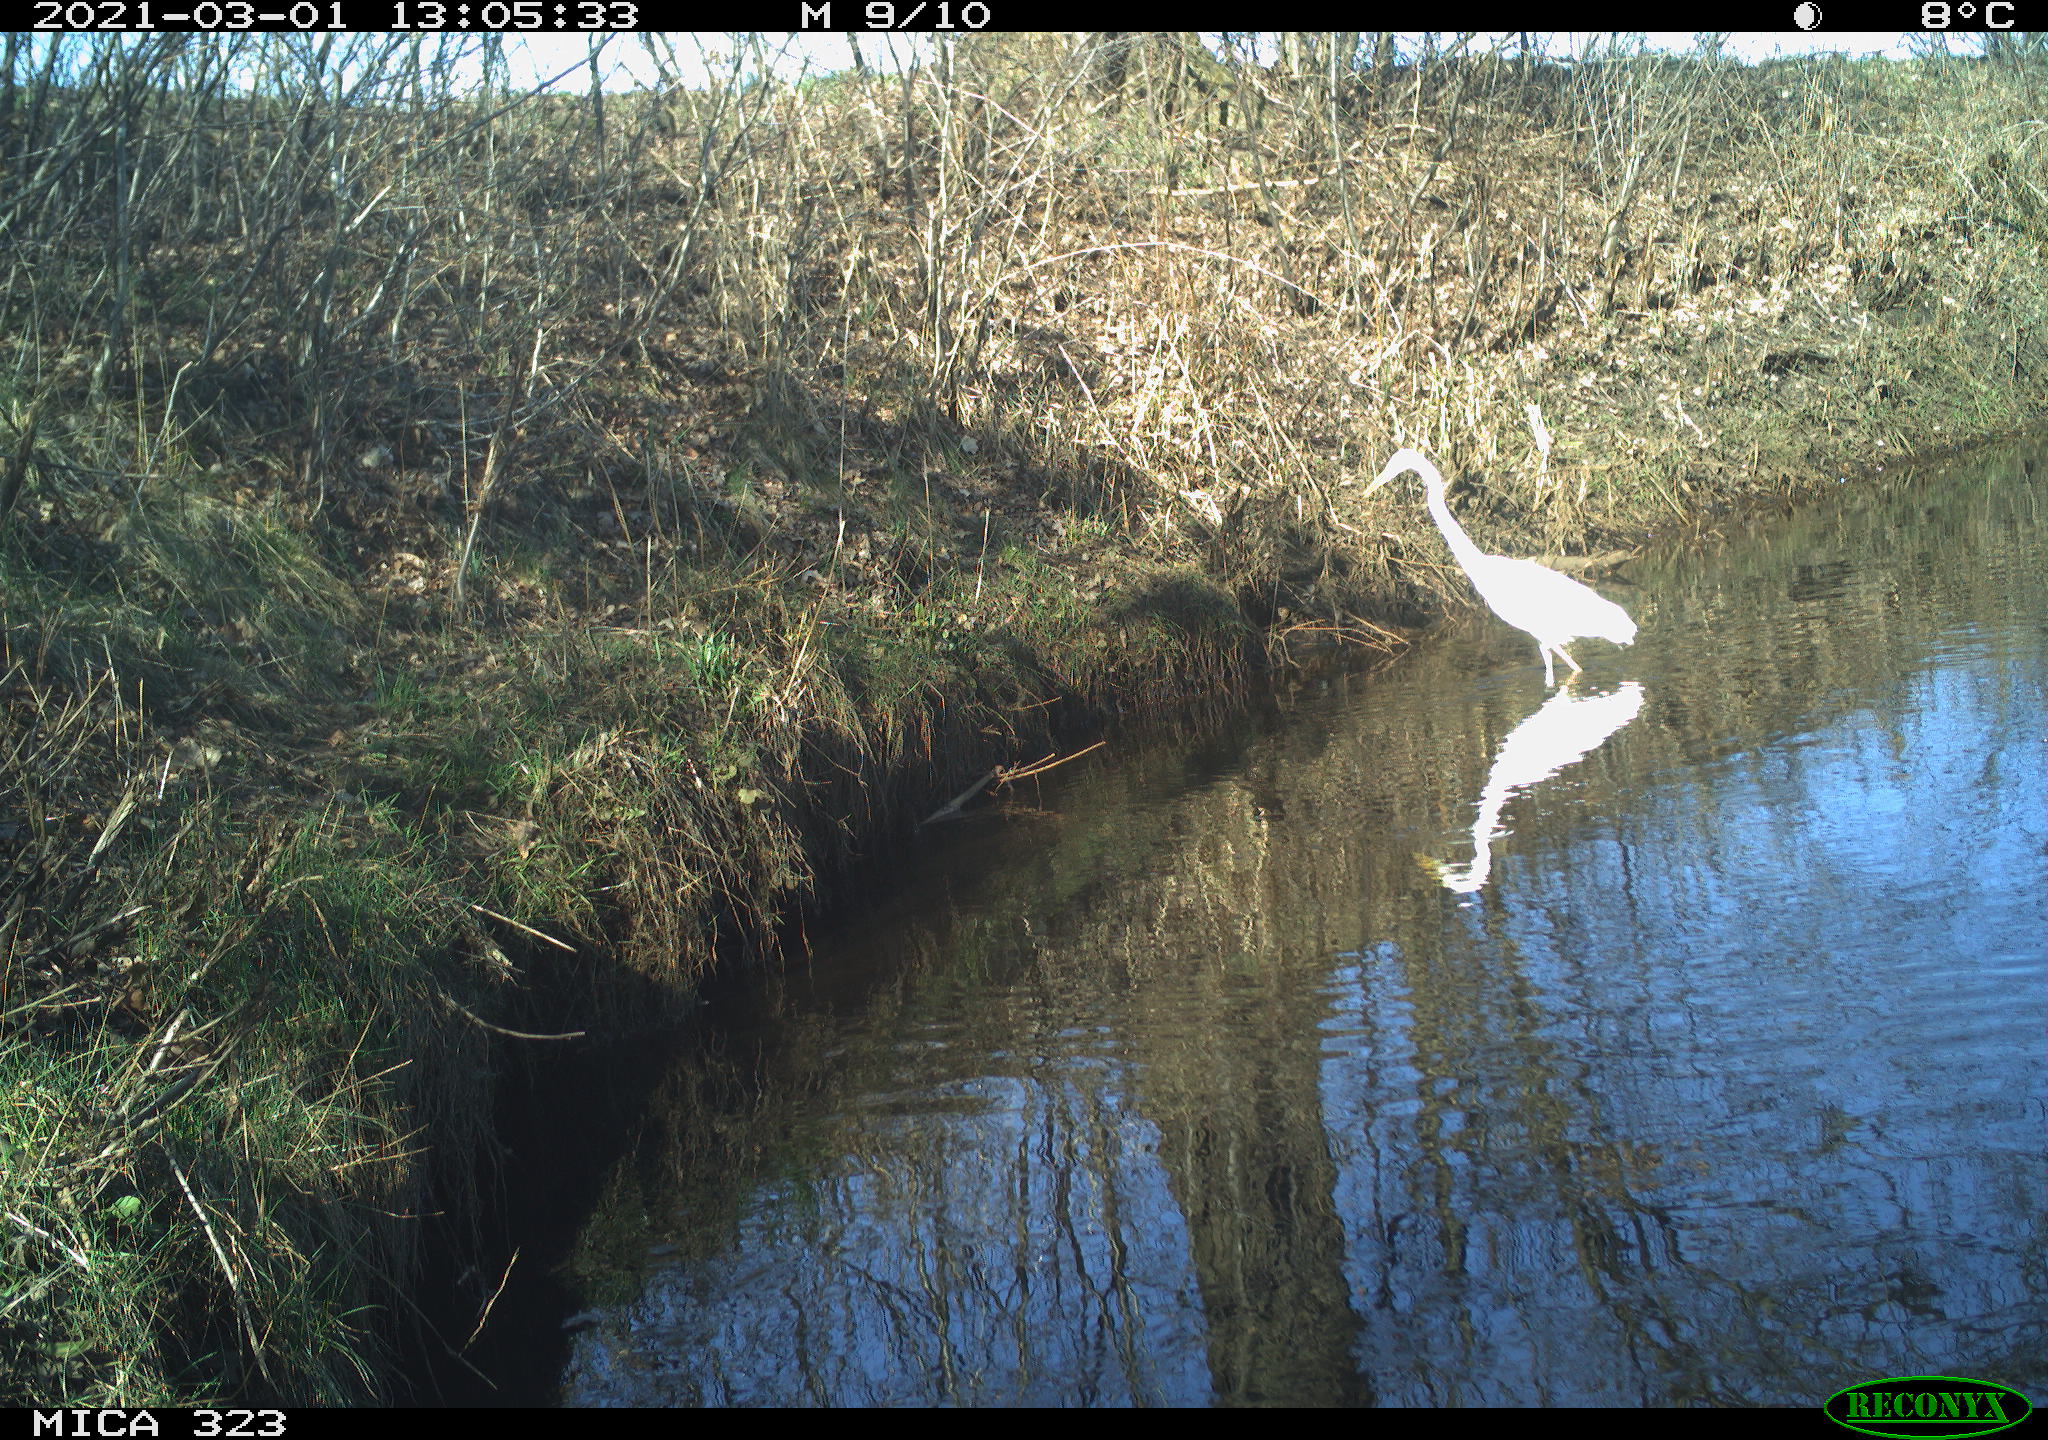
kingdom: Animalia
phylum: Chordata
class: Aves
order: Pelecaniformes
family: Ardeidae
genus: Ardea
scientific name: Ardea alba
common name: Great egret
